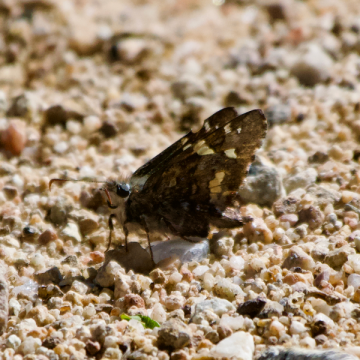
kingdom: Animalia
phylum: Arthropoda
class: Insecta
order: Lepidoptera
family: Hesperiidae
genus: Zestusa
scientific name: Zestusa dorus
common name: Short-tailed Skipper
